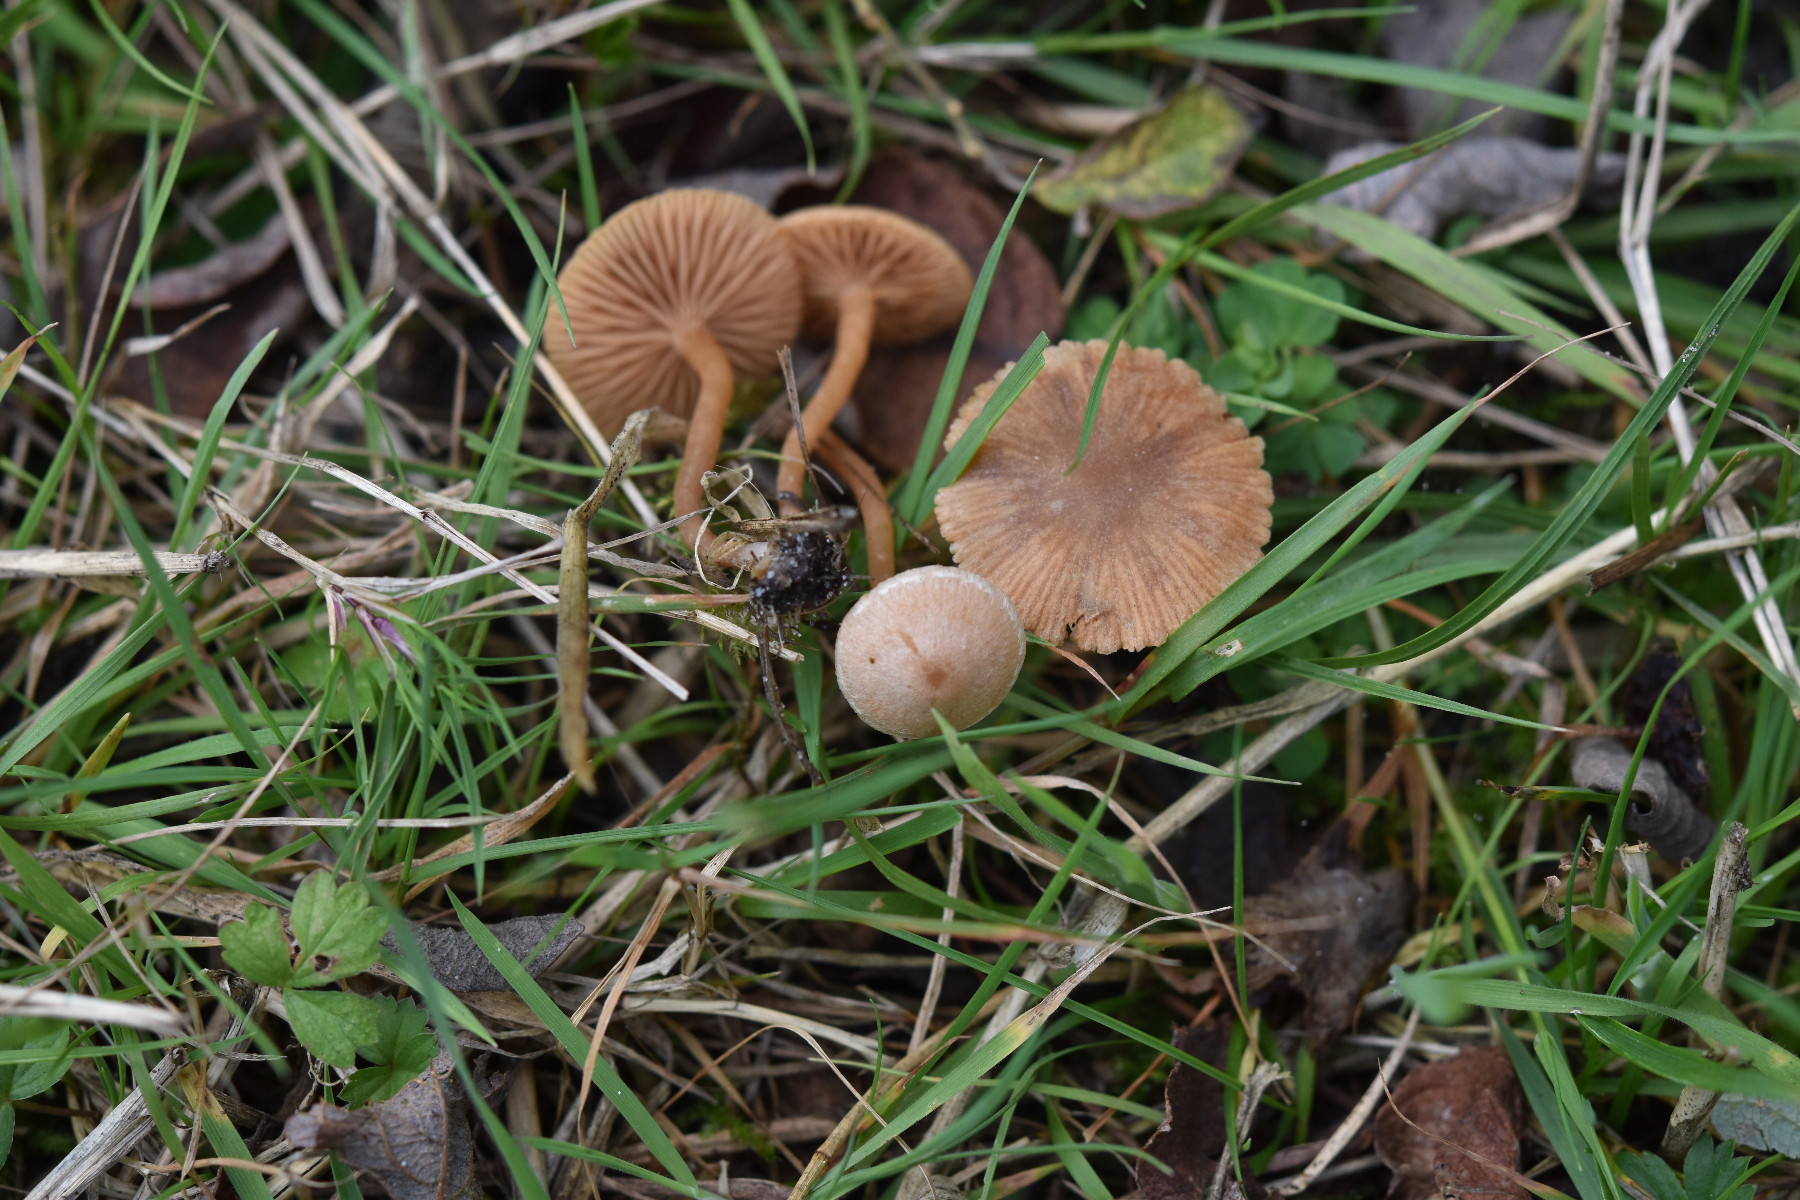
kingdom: Fungi
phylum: Basidiomycota
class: Agaricomycetes
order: Agaricales
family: Tubariaceae
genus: Tubaria
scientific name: Tubaria furfuracea
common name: kliddet fnughat
